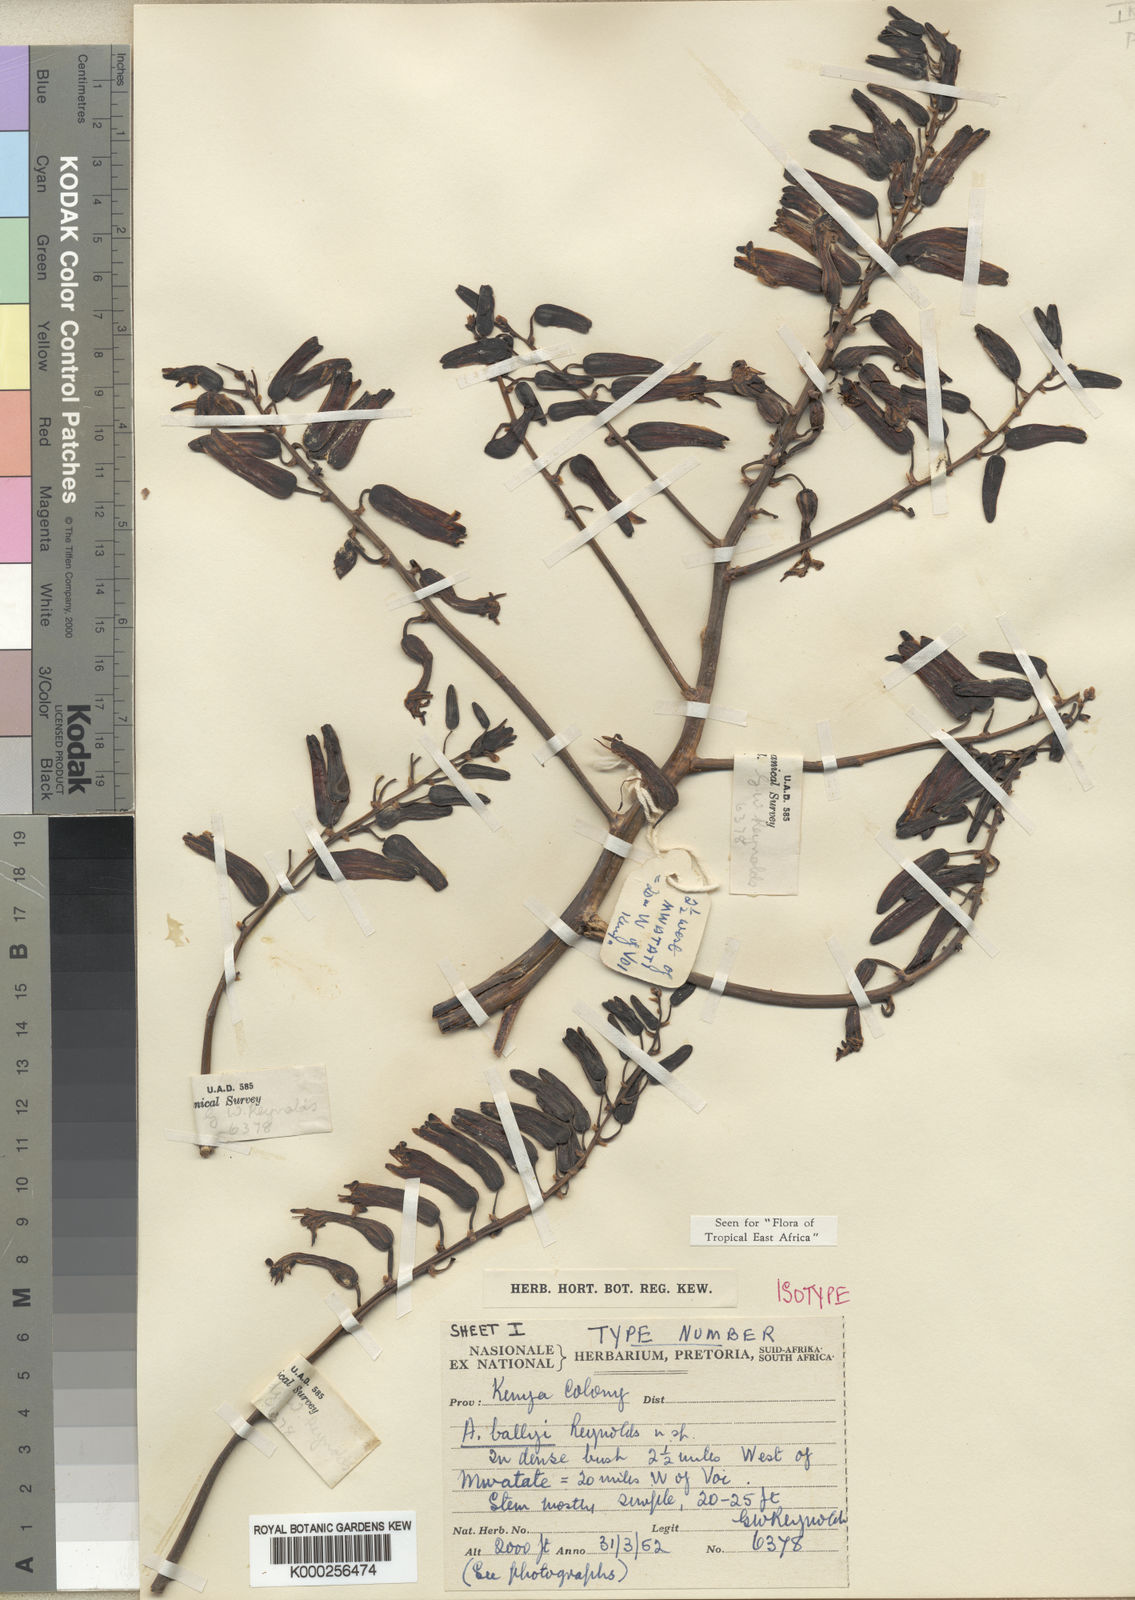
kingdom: Plantae
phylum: Tracheophyta
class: Liliopsida
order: Asparagales
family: Asphodelaceae
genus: Aloe
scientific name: Aloe ballyi
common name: Rat aloe
